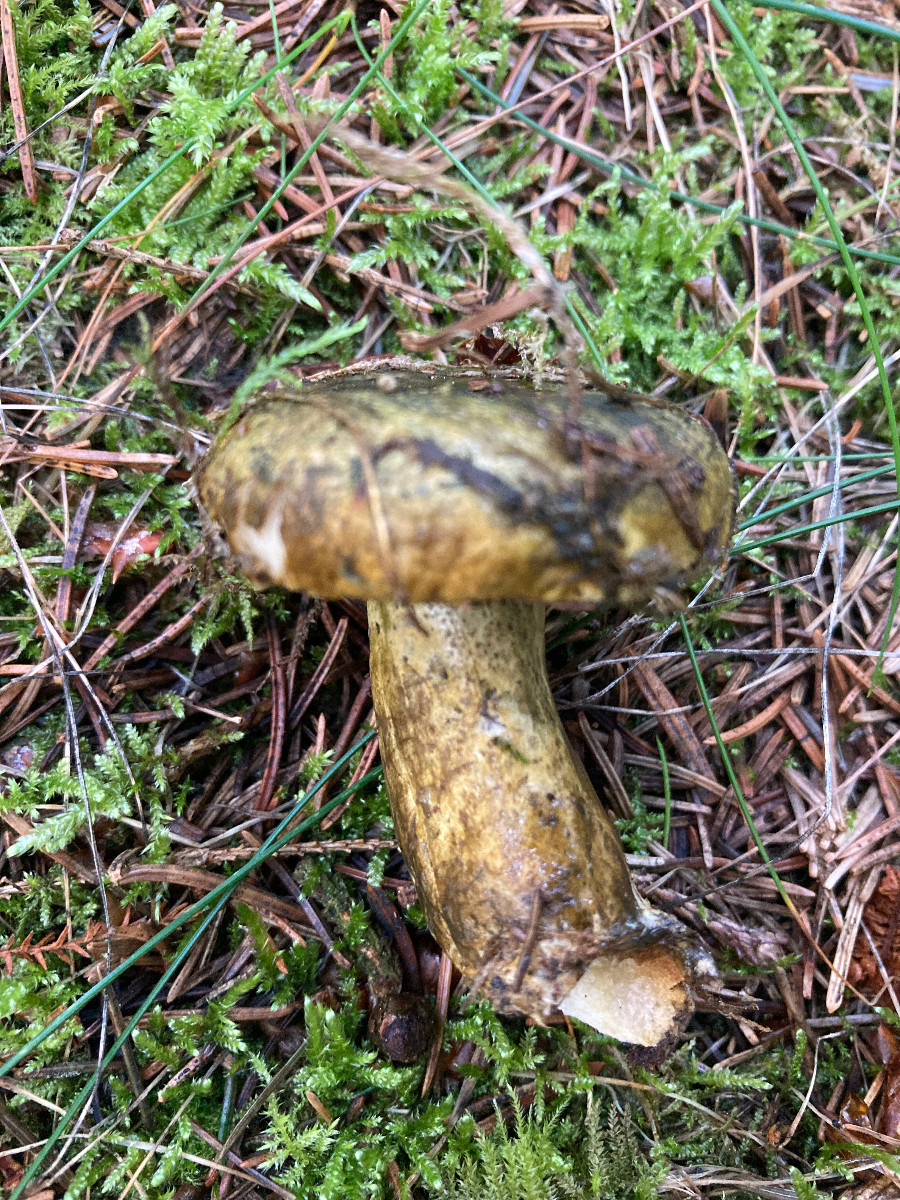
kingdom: Fungi
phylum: Basidiomycota
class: Agaricomycetes
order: Russulales
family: Russulaceae
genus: Lactarius
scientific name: Lactarius necator
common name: manddraber-mælkehat
